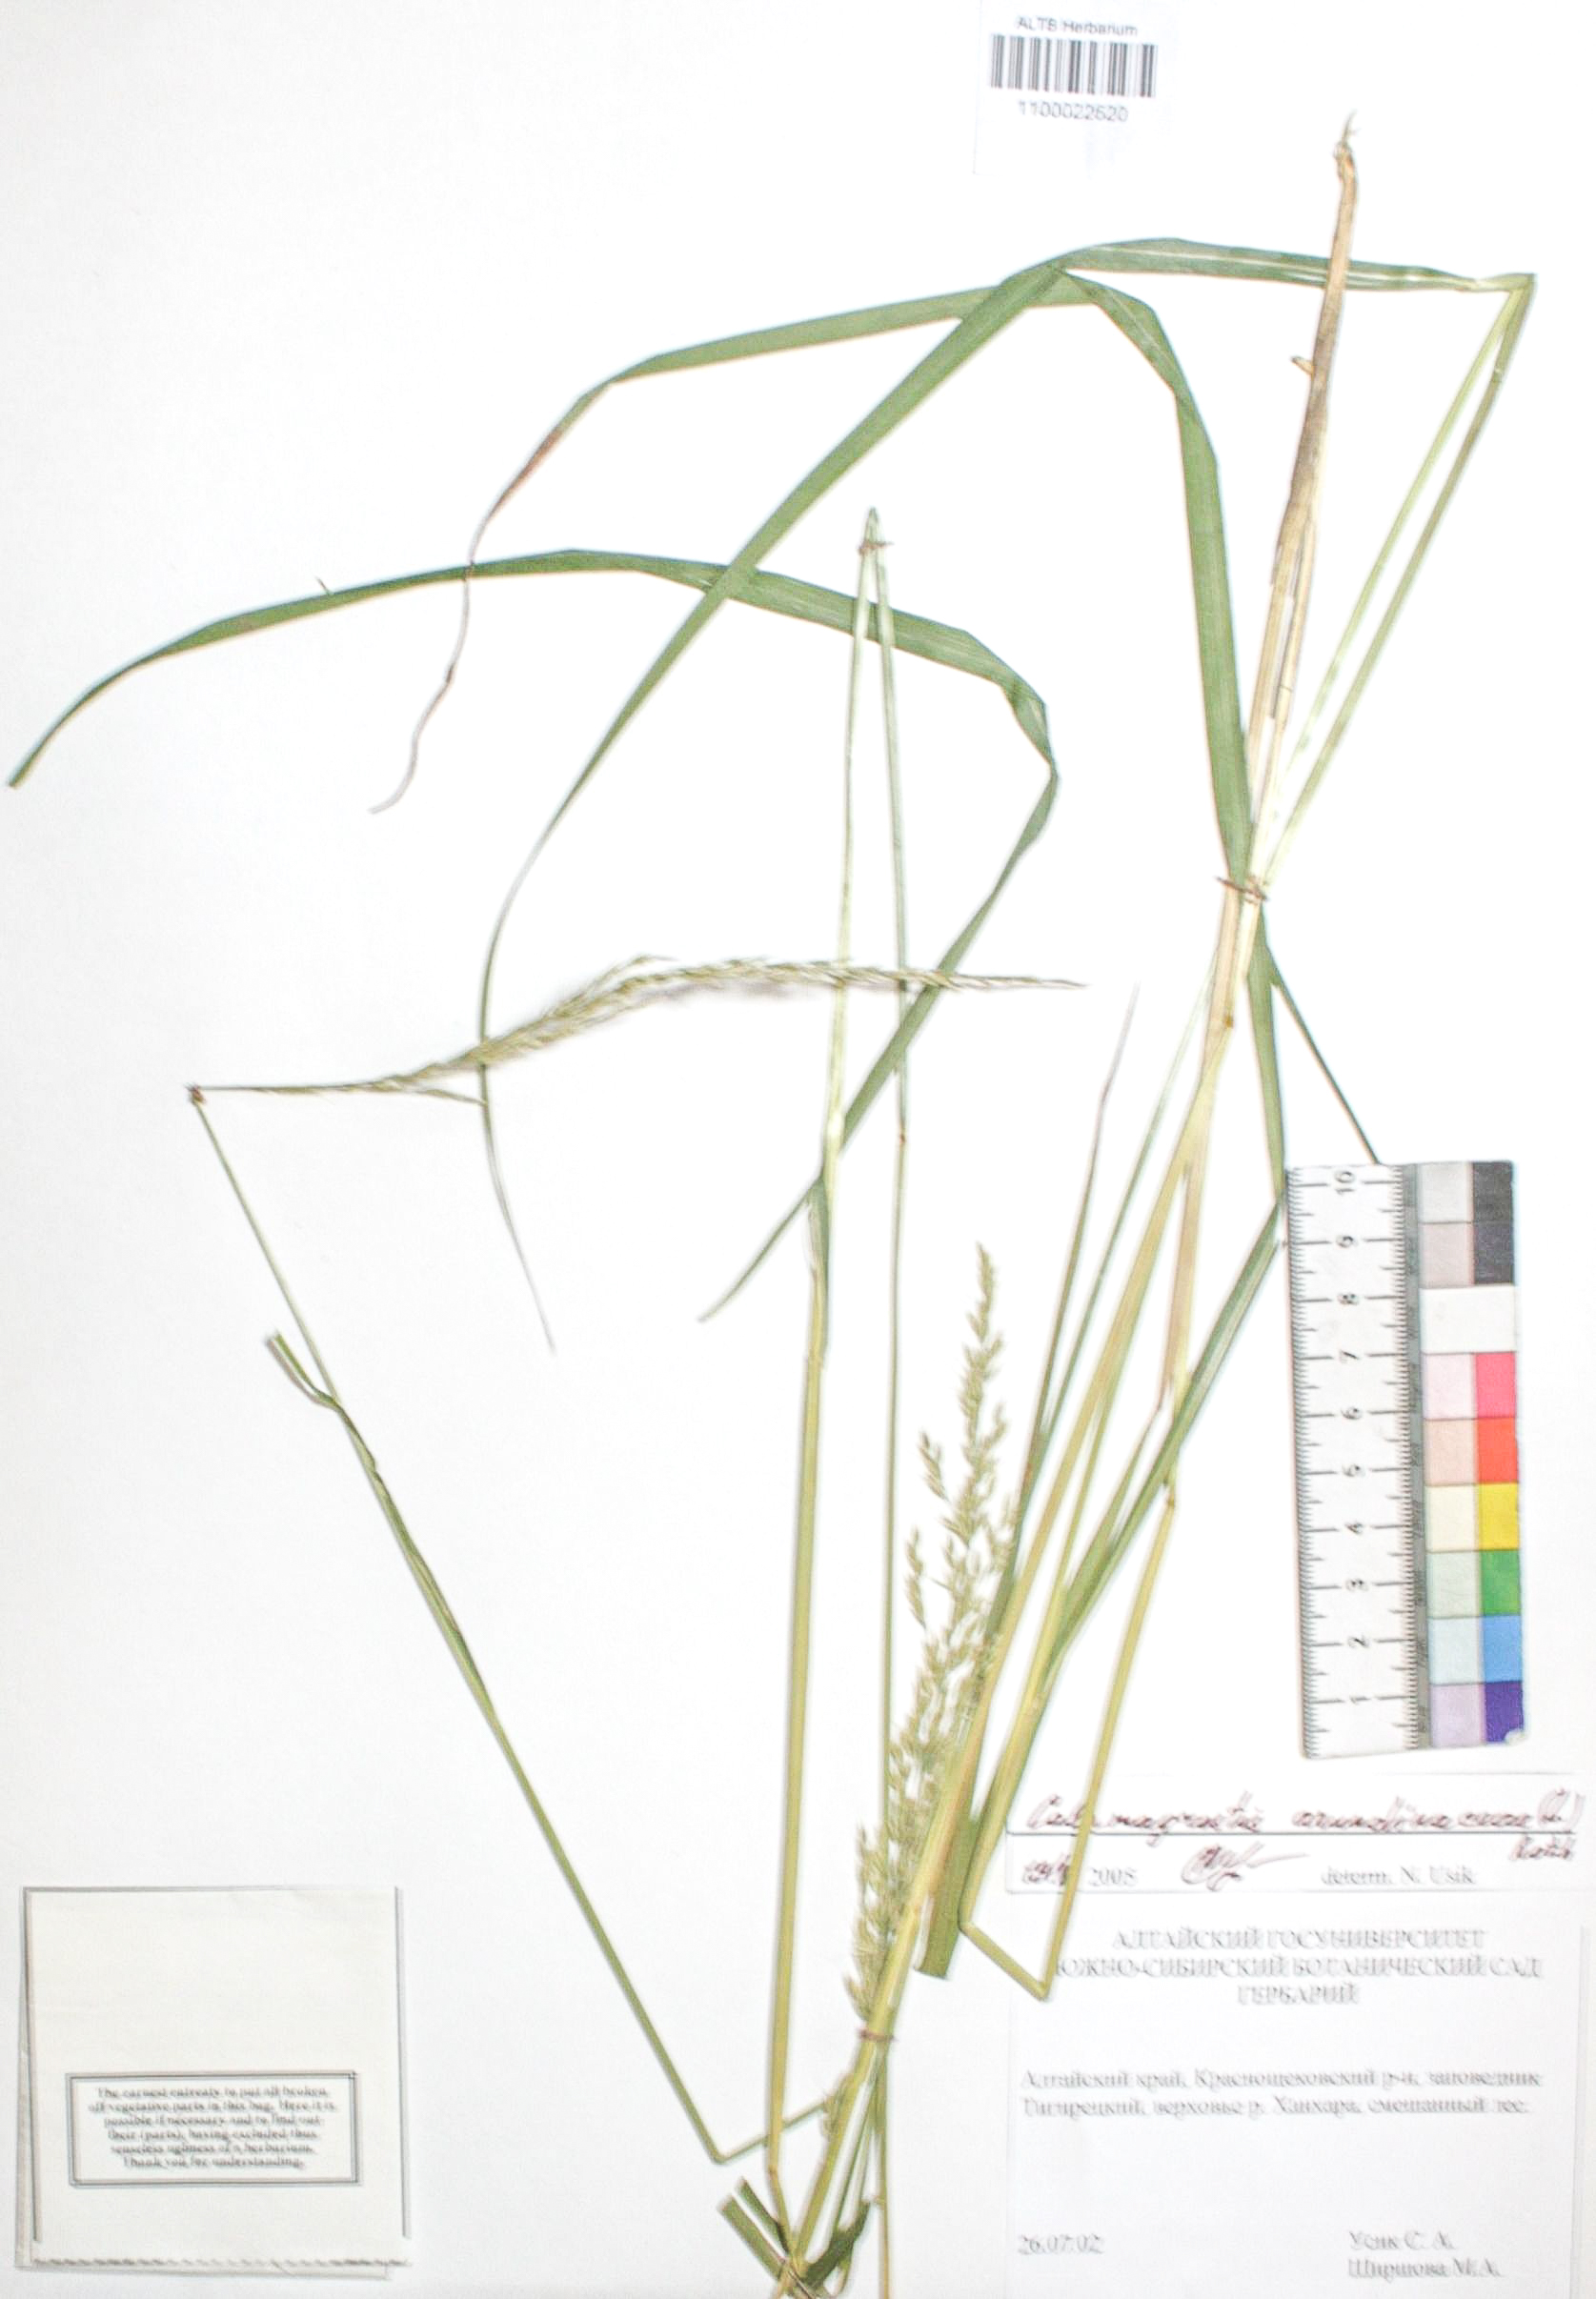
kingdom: Plantae
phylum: Tracheophyta
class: Liliopsida
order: Poales
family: Poaceae
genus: Calamagrostis
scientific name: Calamagrostis arundinacea
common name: Metskastik
